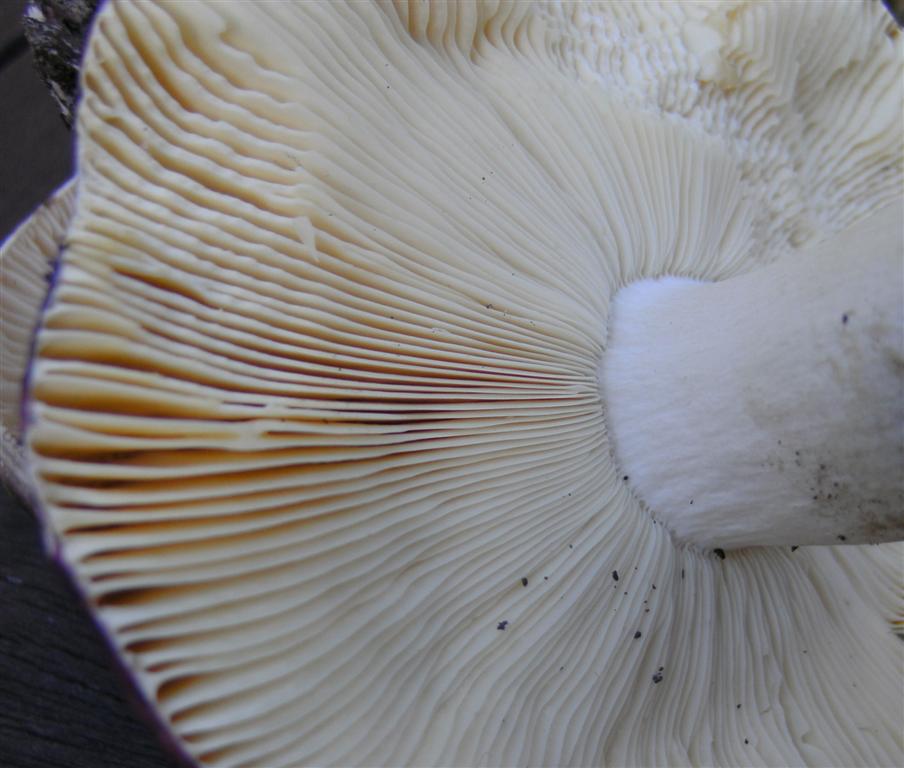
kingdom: Fungi
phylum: Basidiomycota
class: Agaricomycetes
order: Russulales
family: Russulaceae
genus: Russula
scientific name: Russula romellii
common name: romells skørhat
